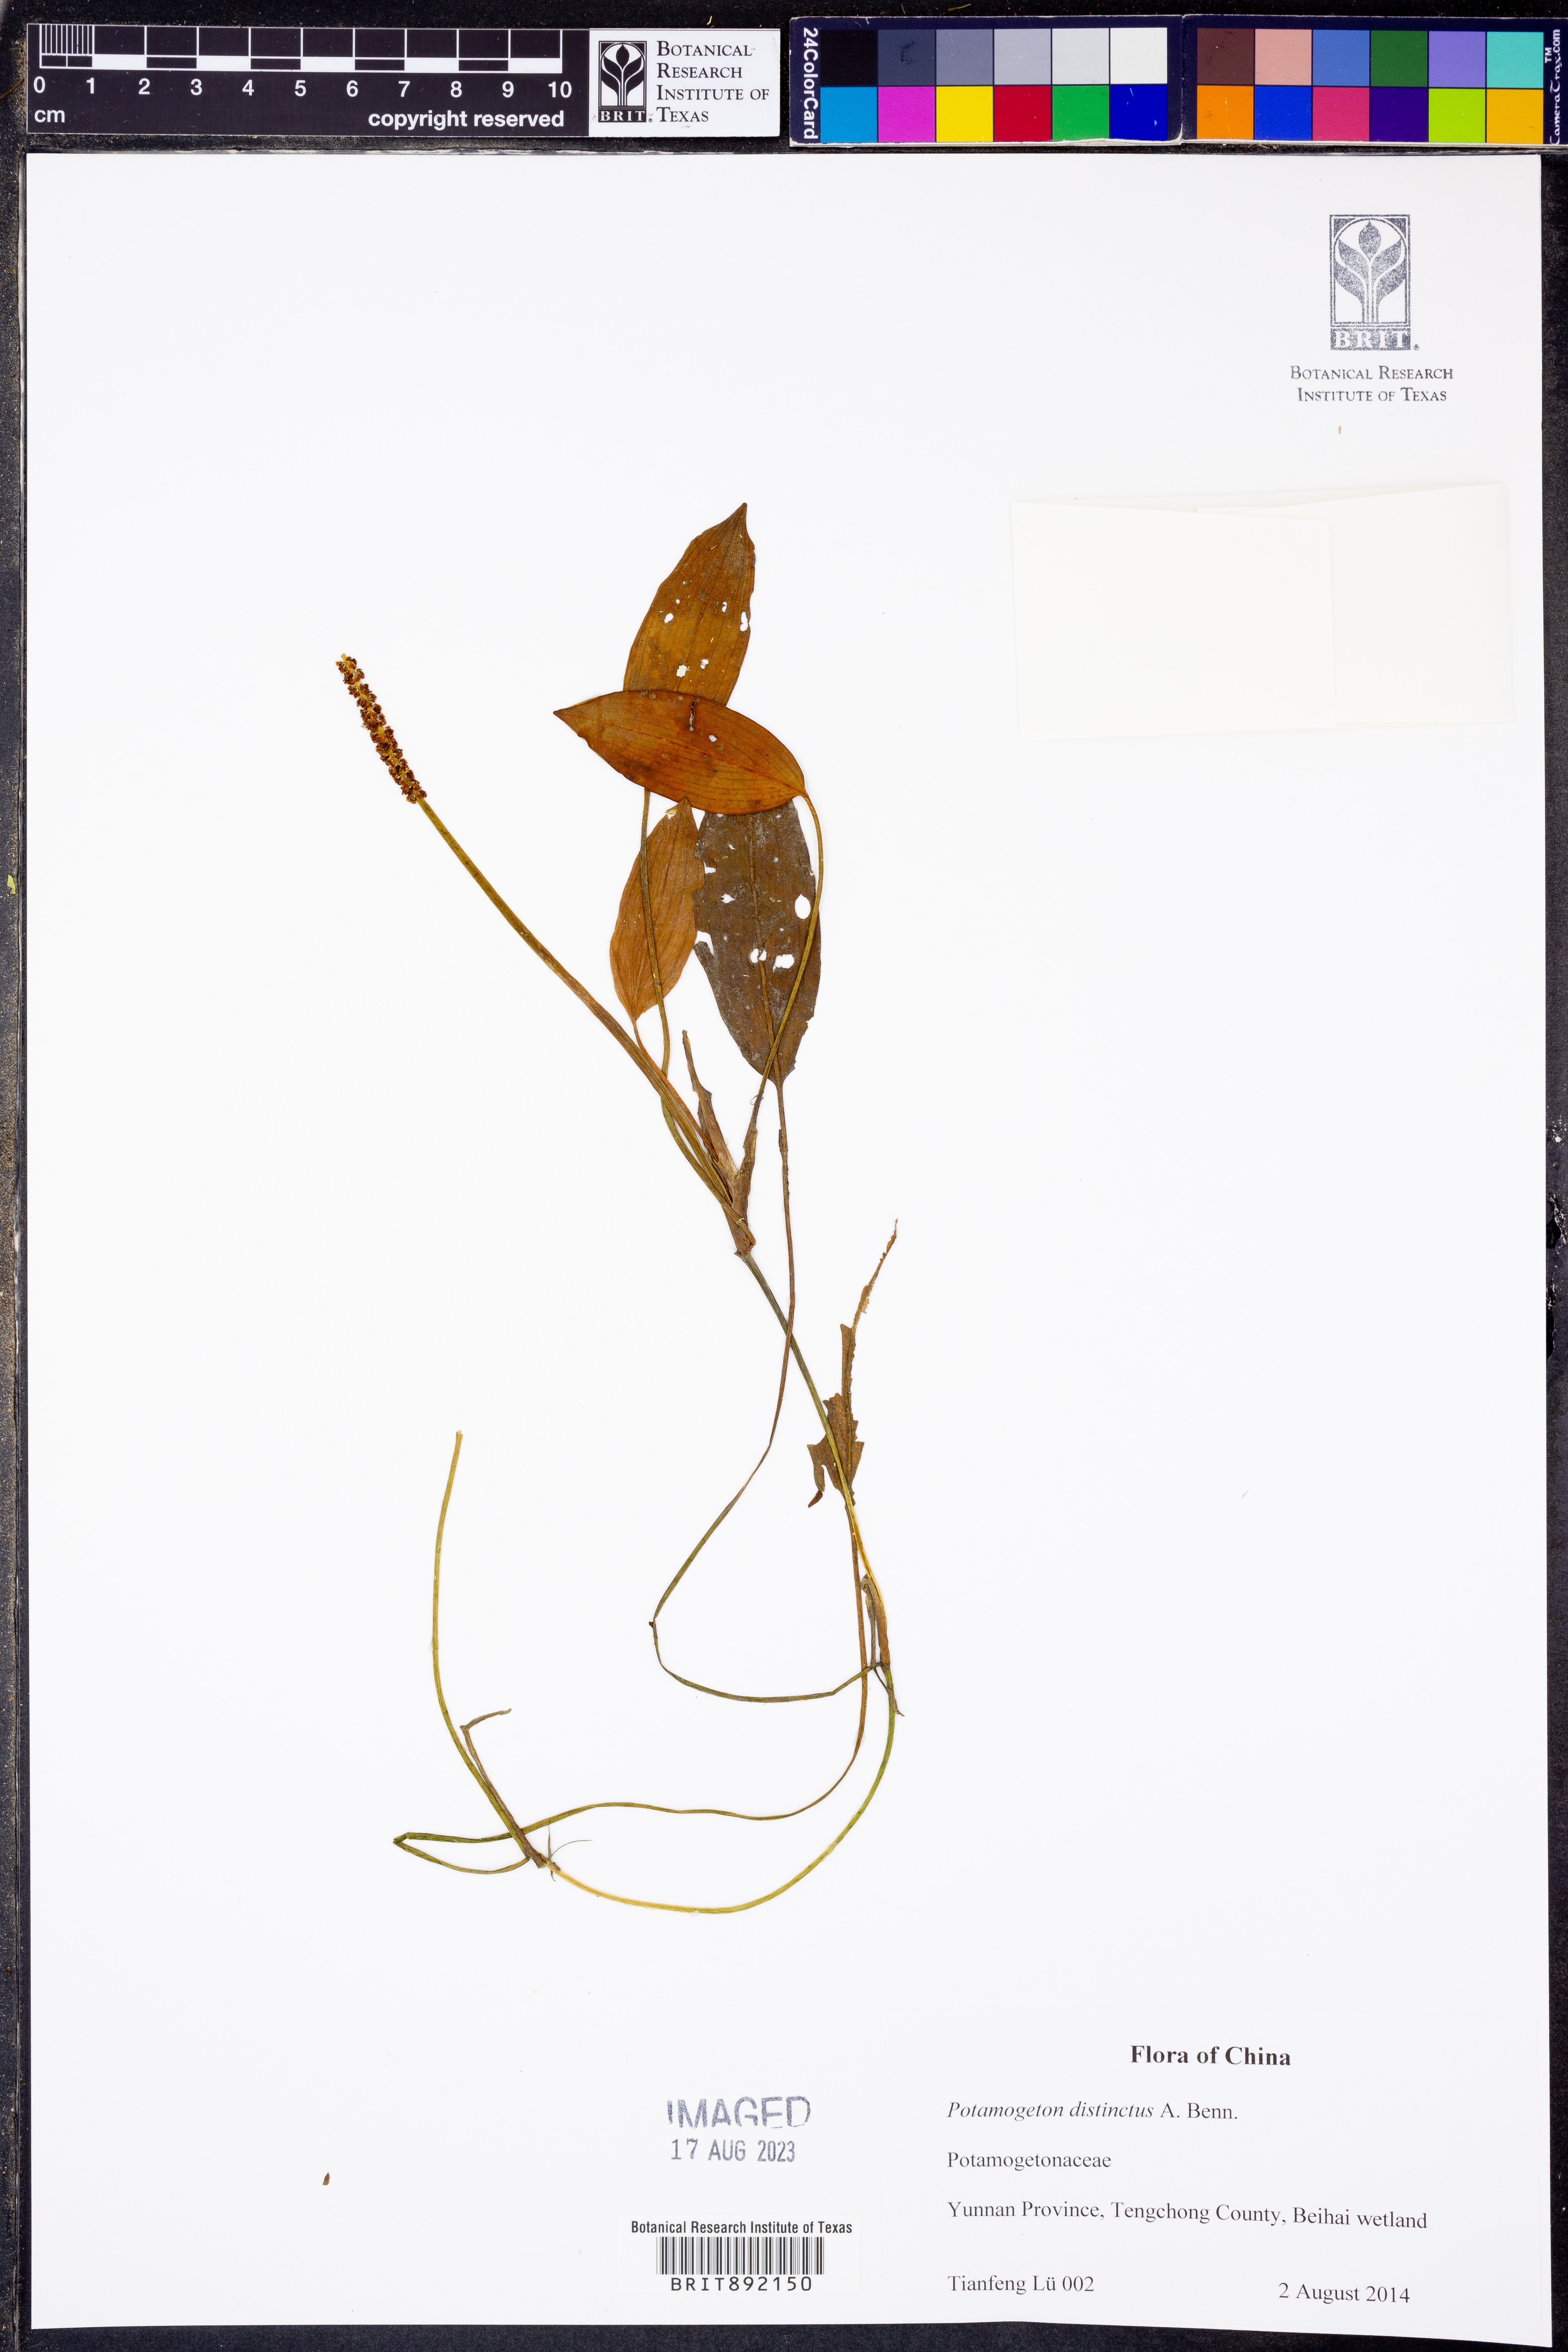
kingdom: Plantae
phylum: Tracheophyta
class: Liliopsida
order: Alismatales
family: Potamogetonaceae
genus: Potamogeton
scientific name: Potamogeton distinctus
